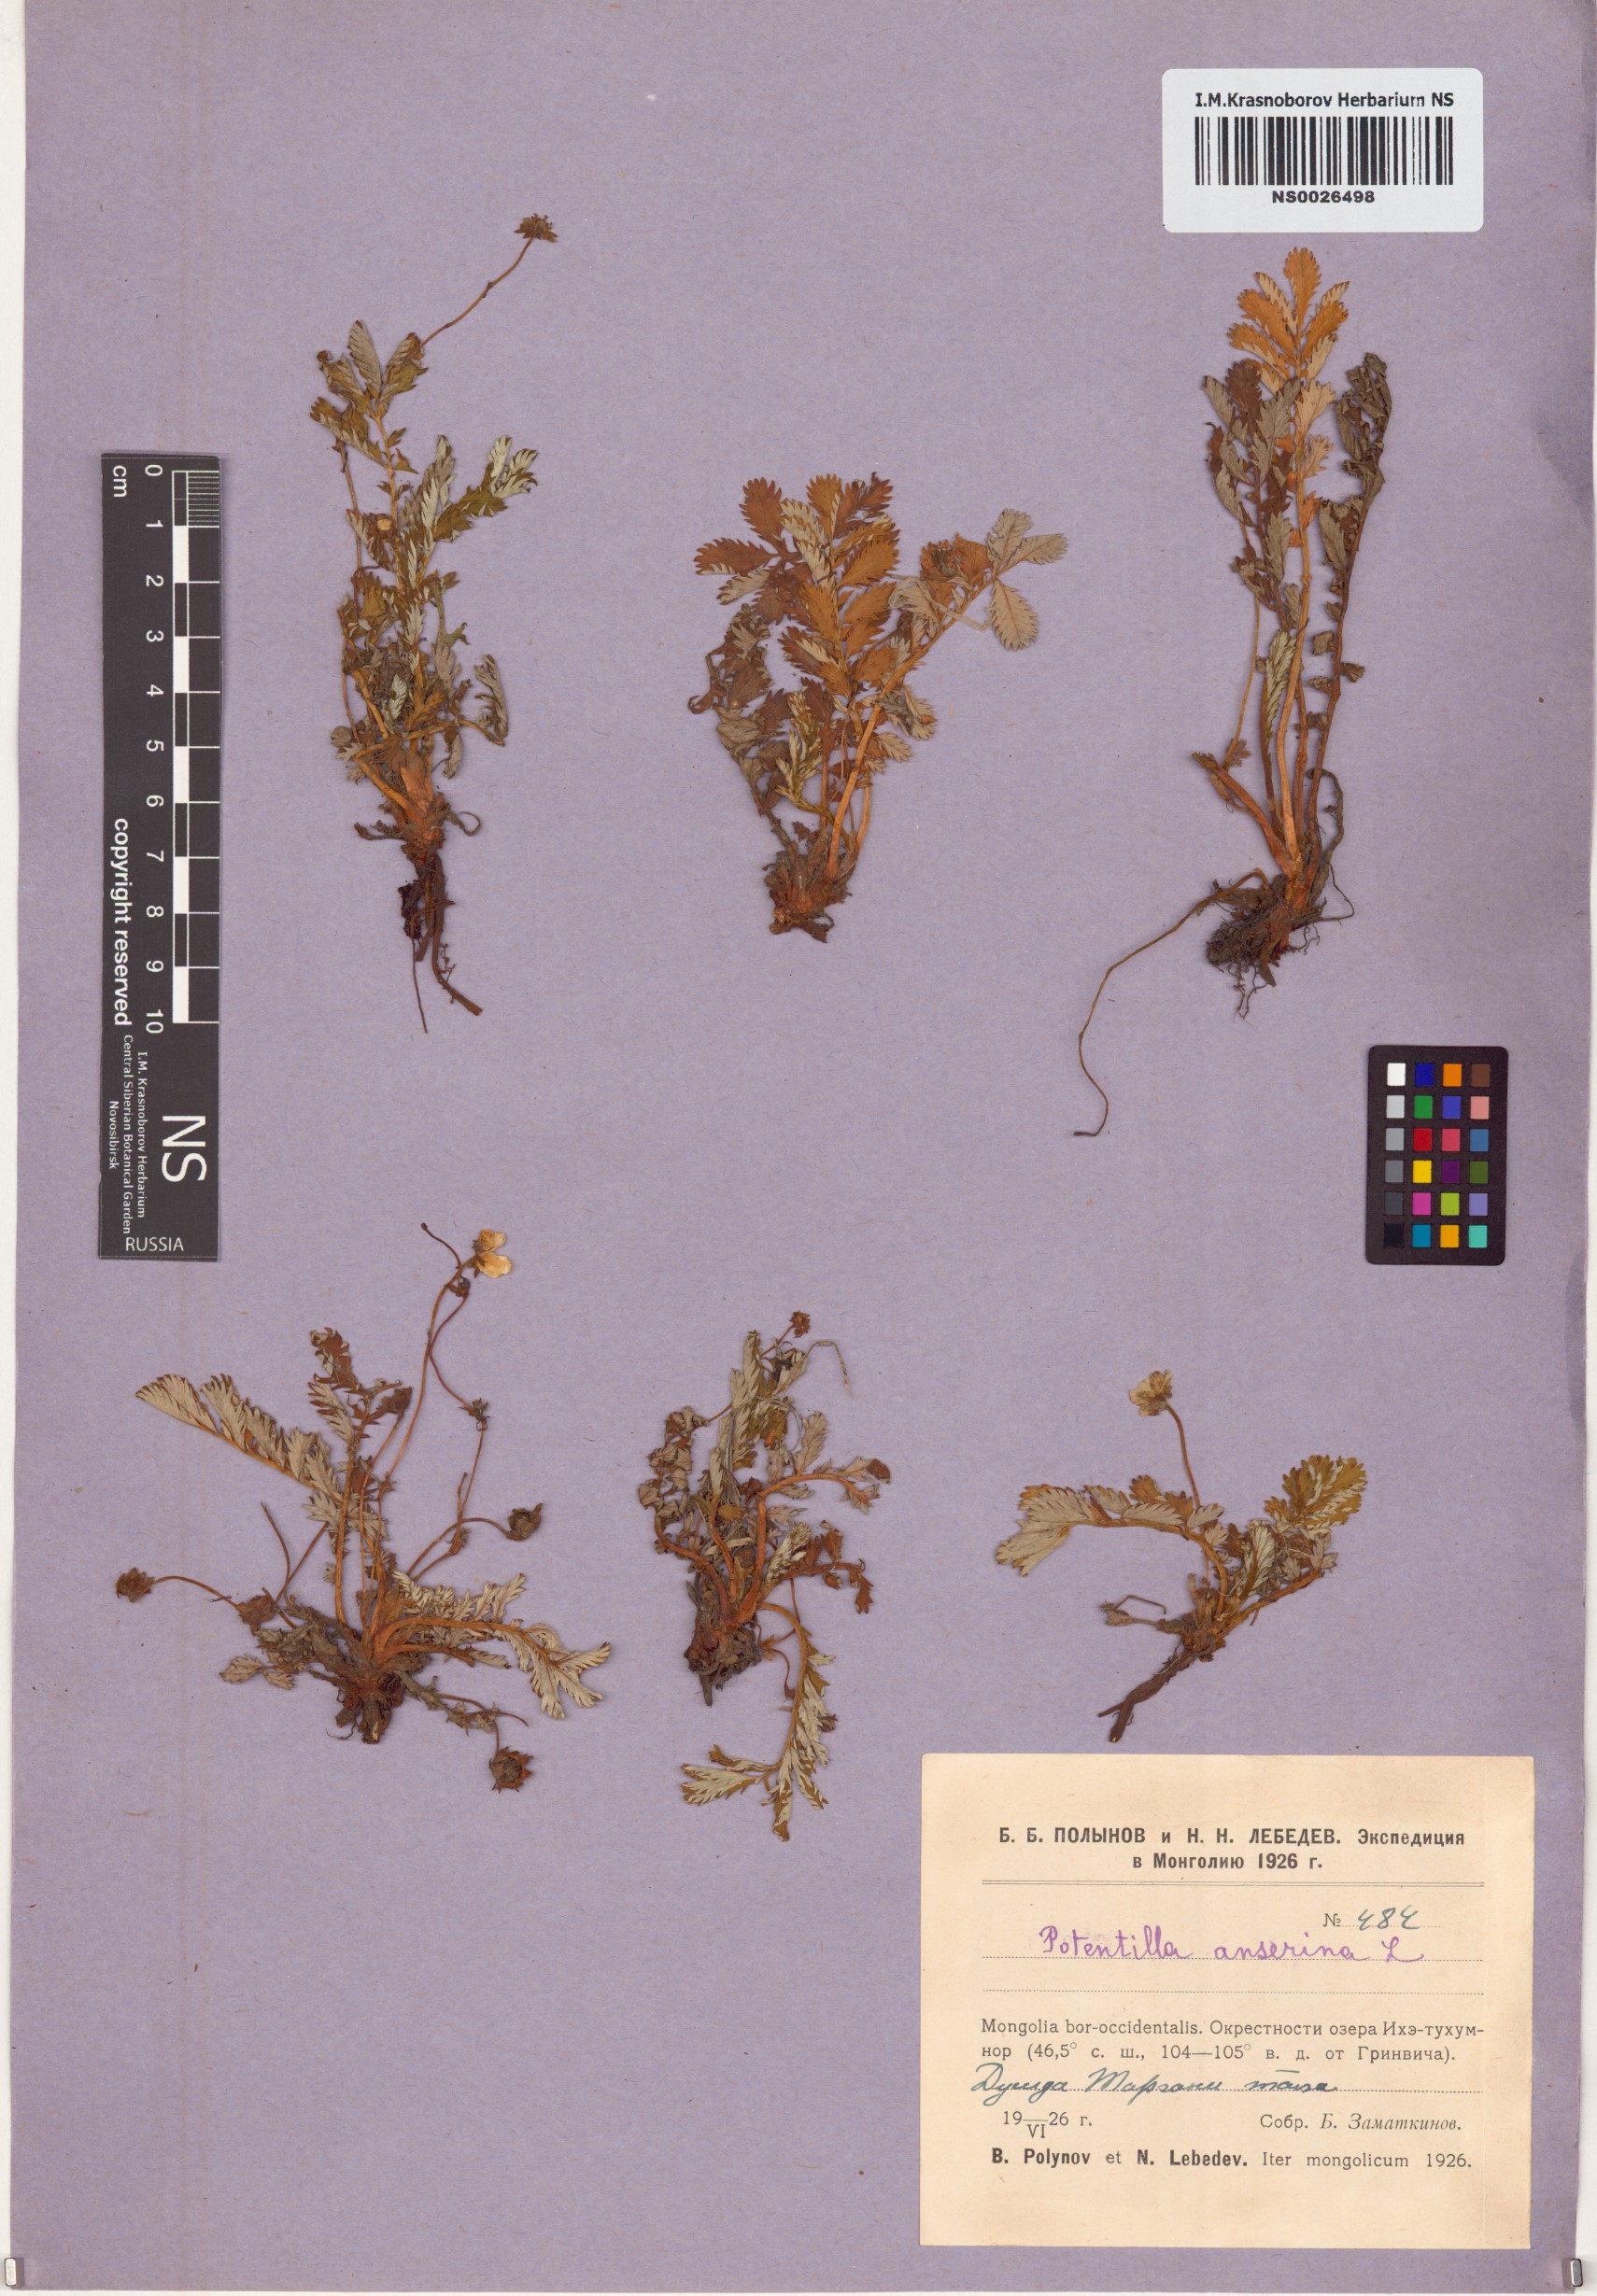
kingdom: Plantae
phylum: Tracheophyta
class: Magnoliopsida
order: Rosales
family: Rosaceae
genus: Argentina
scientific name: Argentina anserina
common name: Common silverweed
